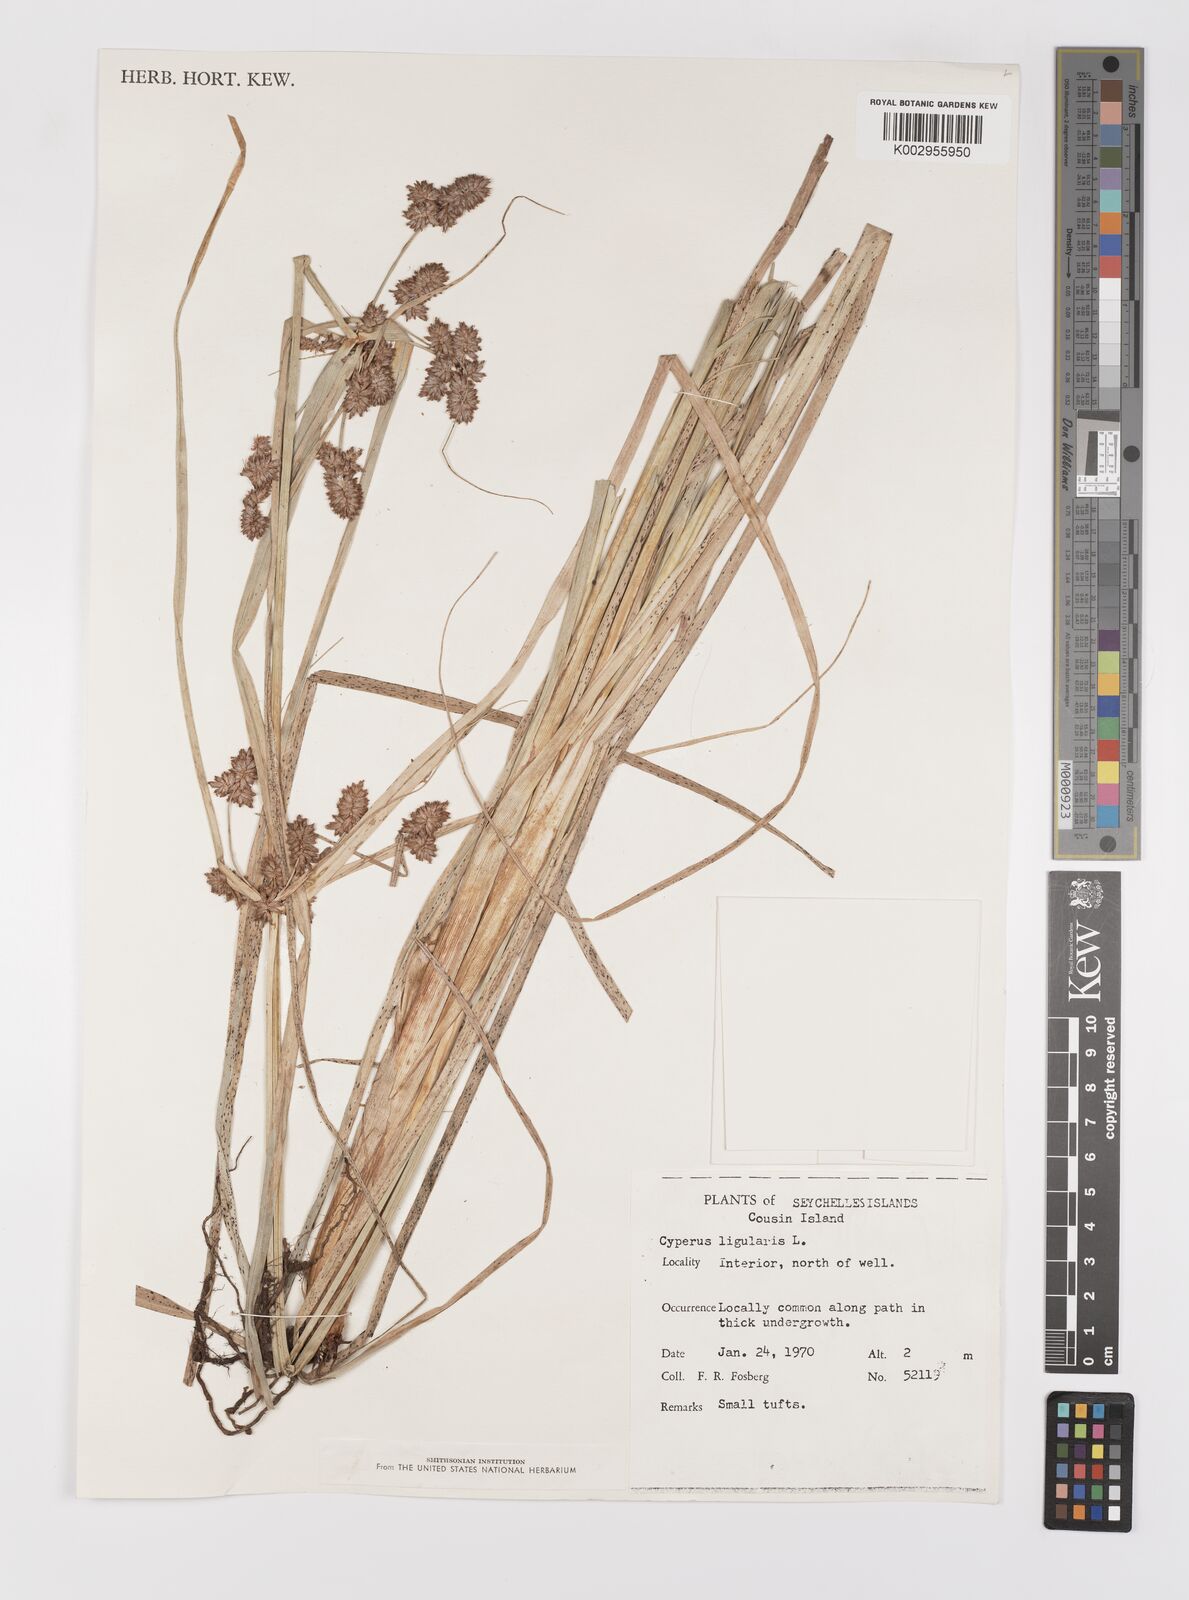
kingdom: Plantae
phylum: Tracheophyta
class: Liliopsida
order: Poales
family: Cyperaceae
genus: Cyperus
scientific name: Cyperus ligularis
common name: Swamp flat sedge
